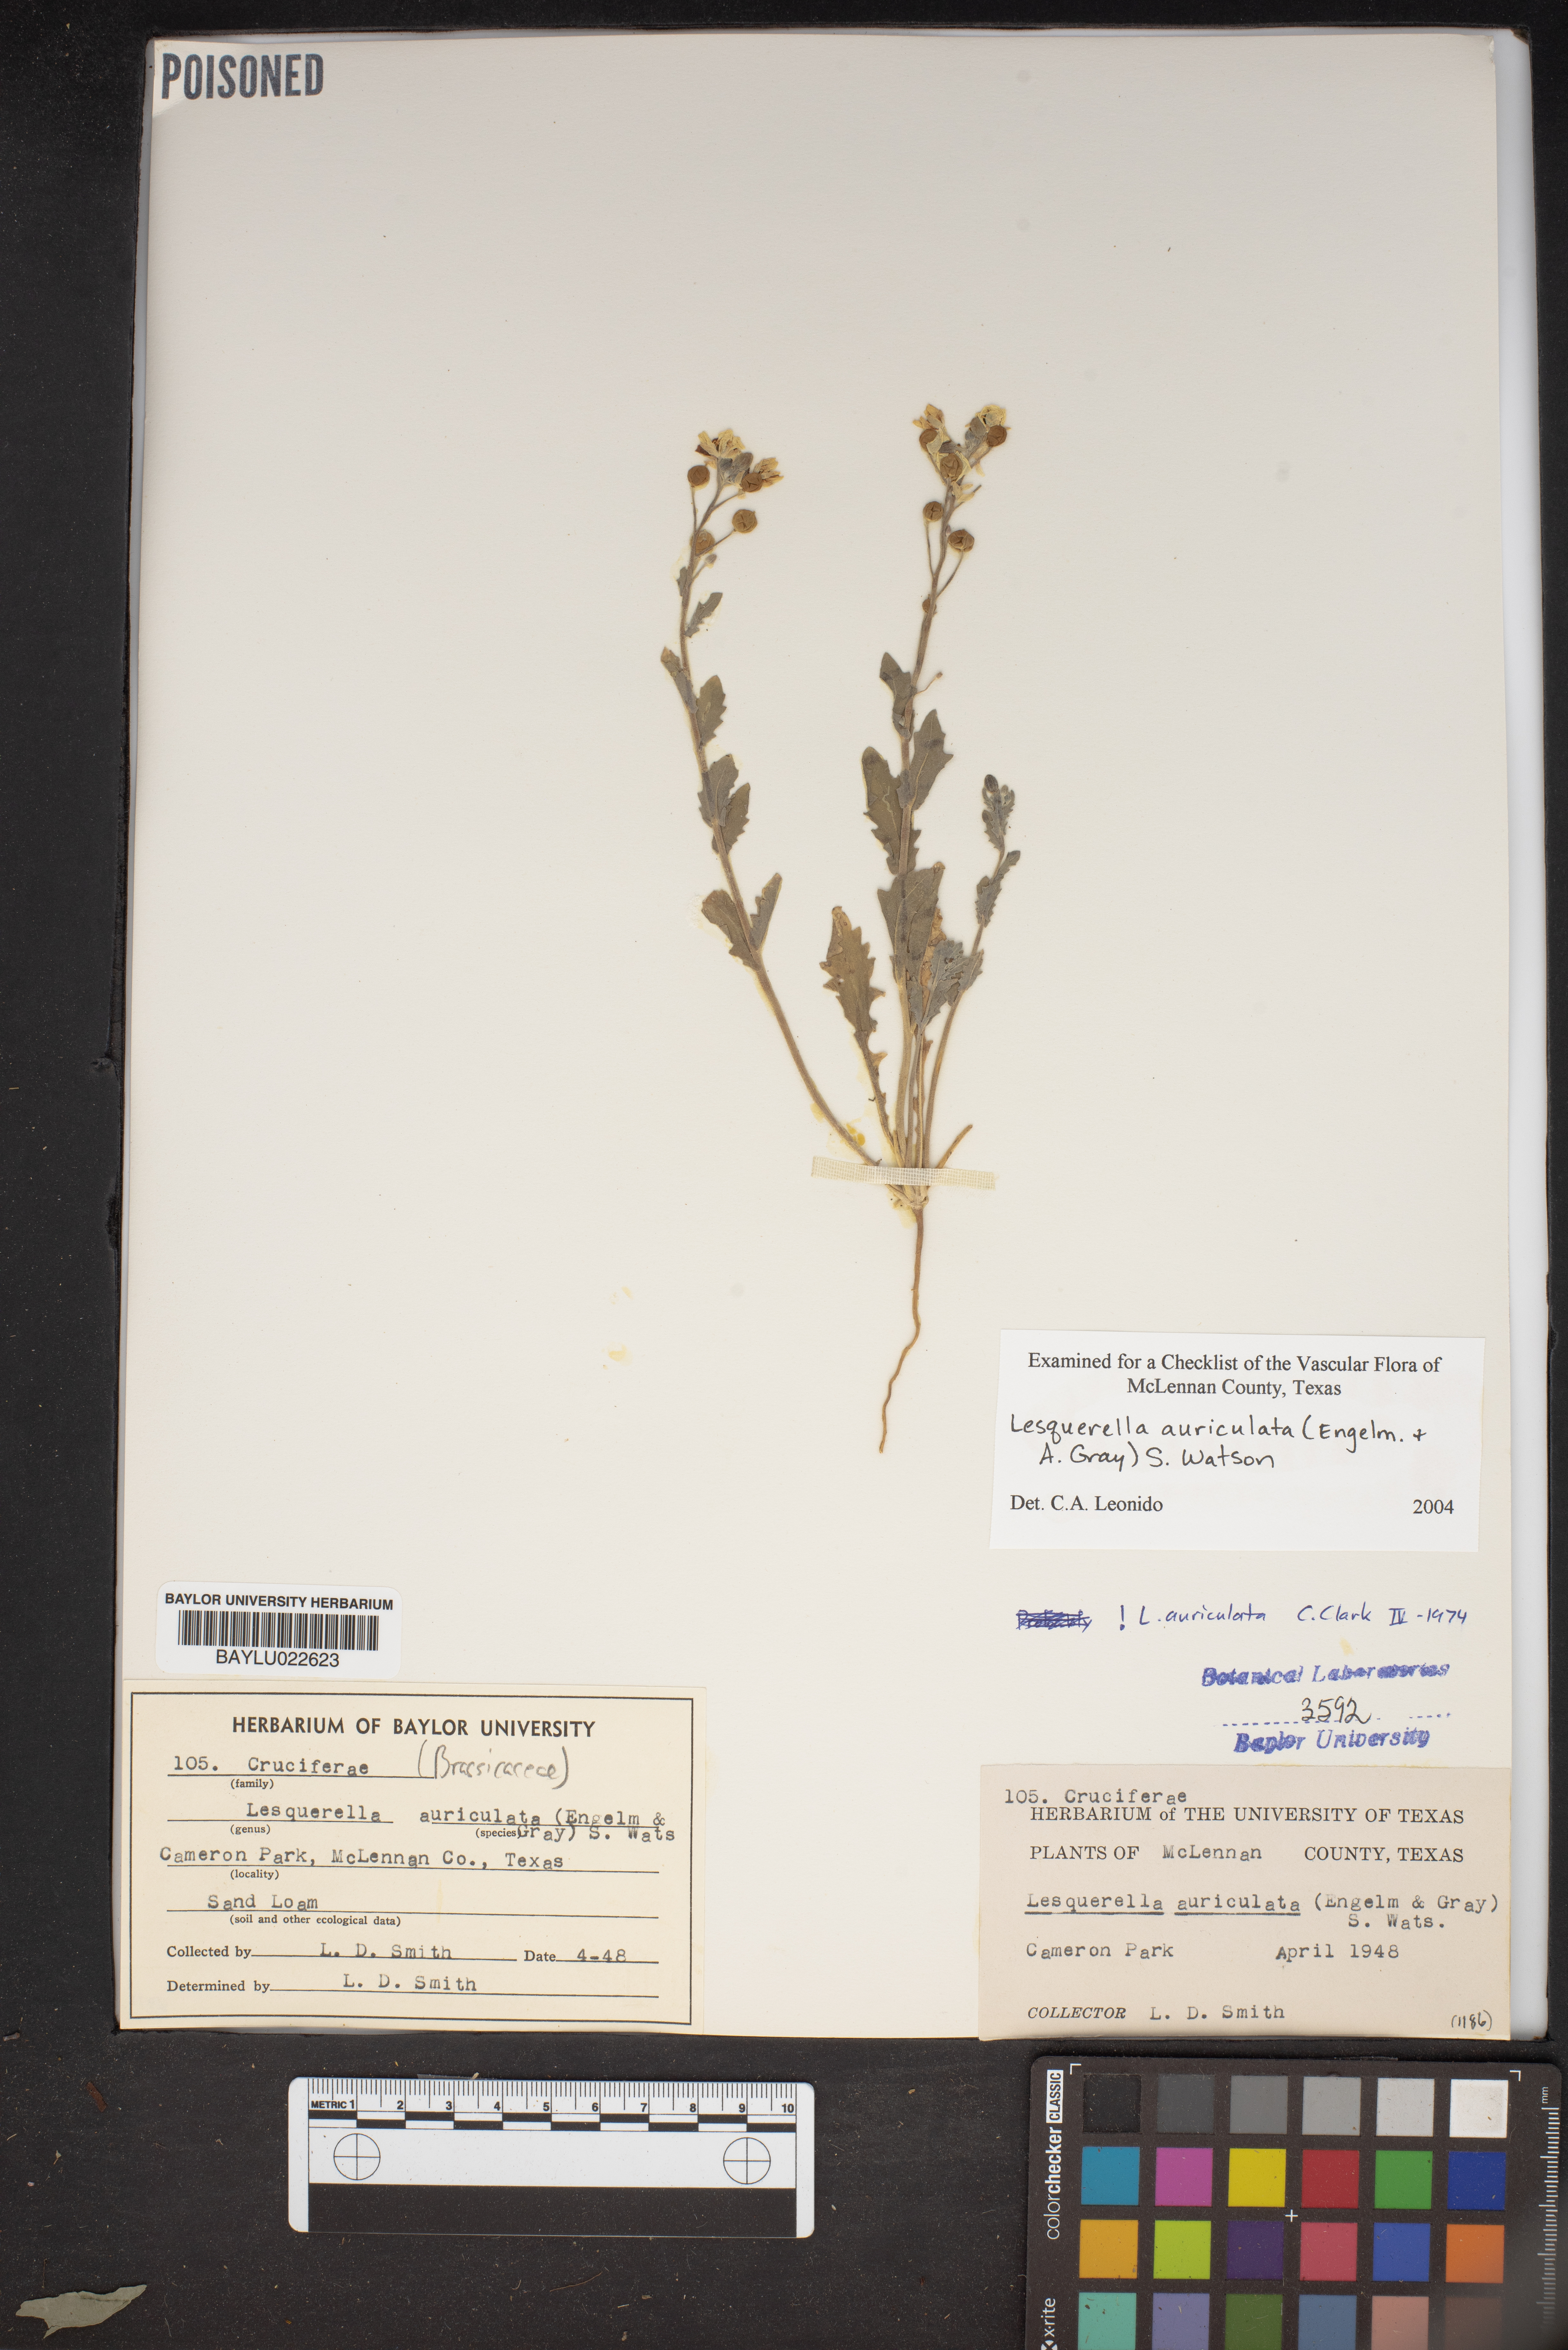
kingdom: Plantae
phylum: Tracheophyta
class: Magnoliopsida
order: Brassicales
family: Brassicaceae
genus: Paysonia
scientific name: Paysonia auriculata
